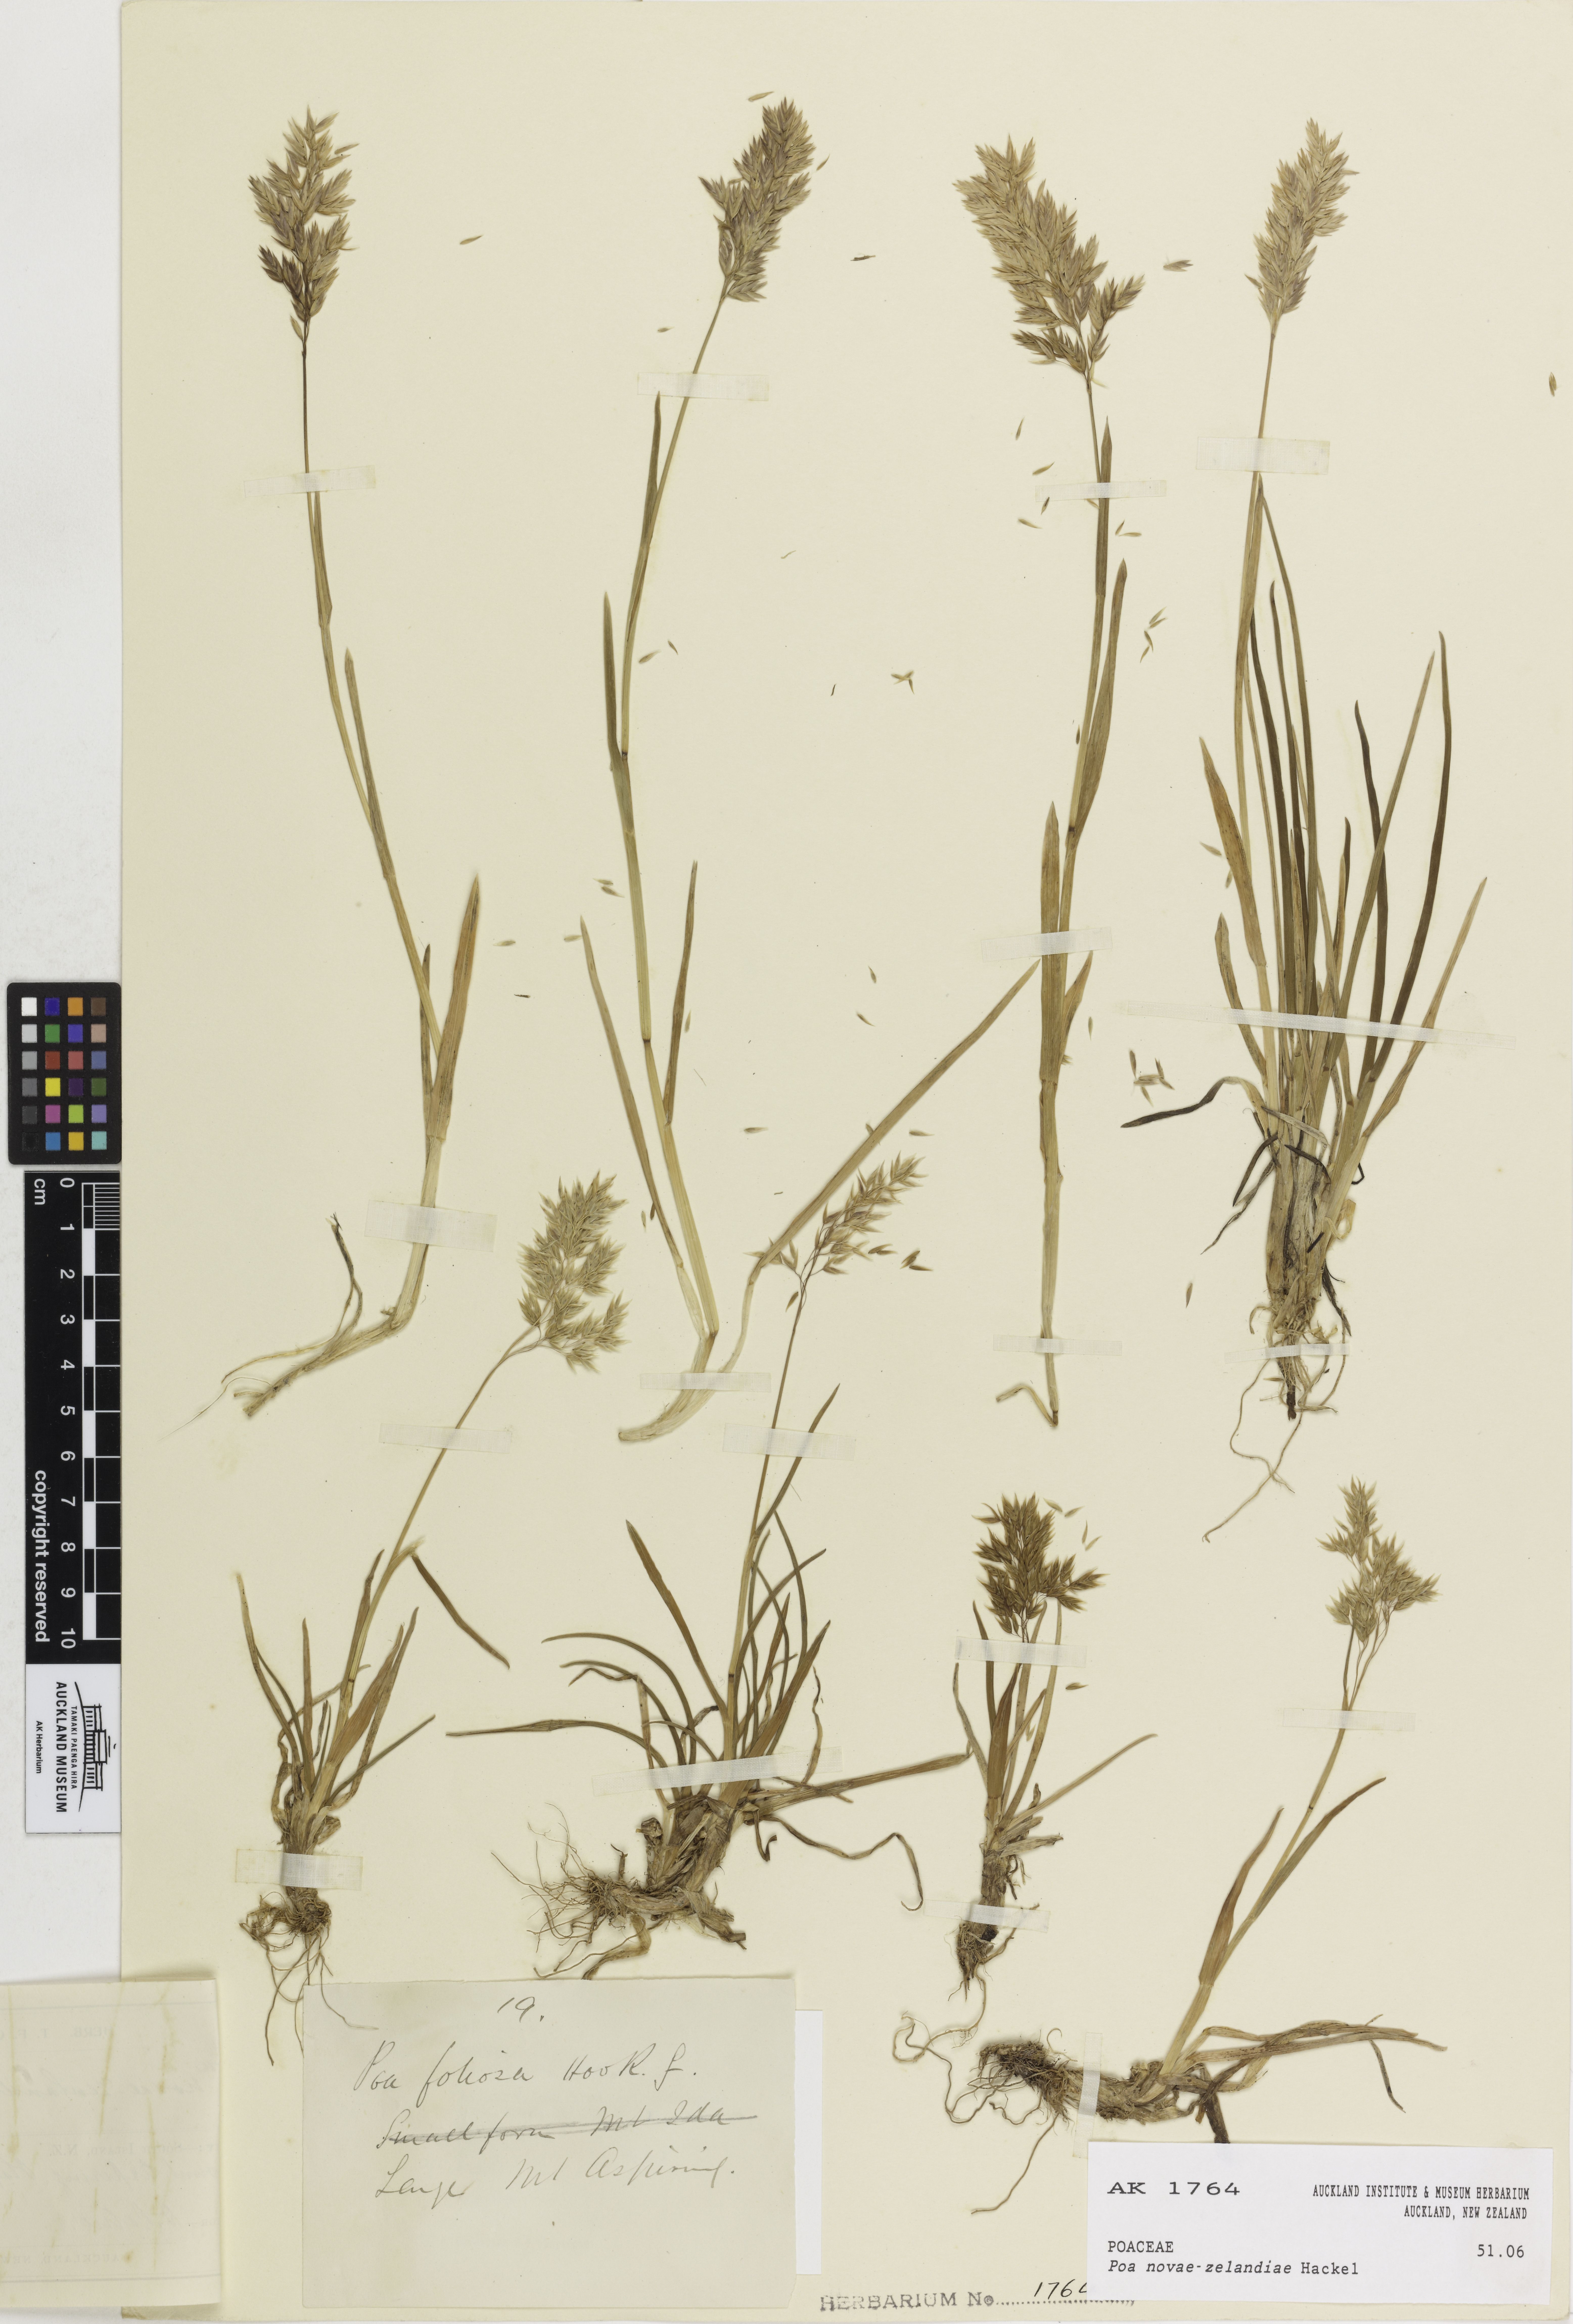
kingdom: Plantae
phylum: Tracheophyta
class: Liliopsida
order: Poales
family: Poaceae
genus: Poa
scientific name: Poa novae-zelandiae
